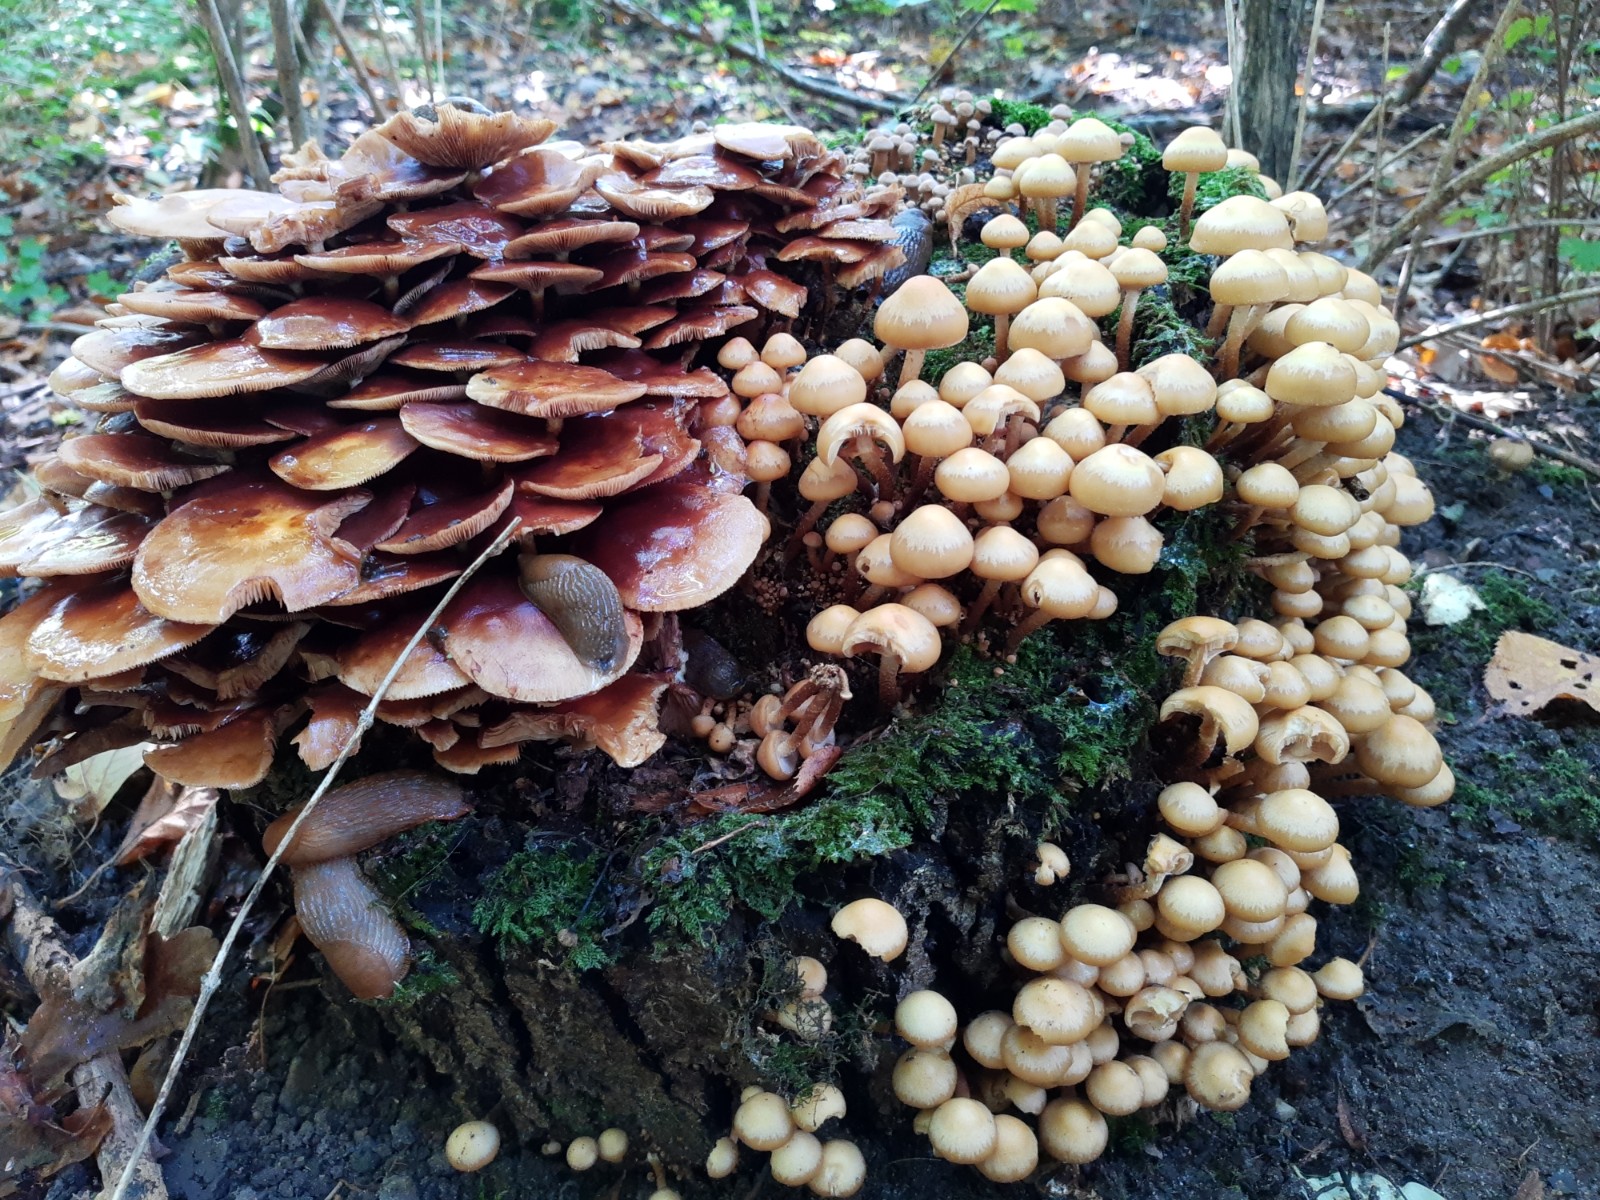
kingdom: Fungi
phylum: Basidiomycota
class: Agaricomycetes
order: Agaricales
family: Strophariaceae
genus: Kuehneromyces
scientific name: Kuehneromyces mutabilis
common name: foranderlig skælhat
